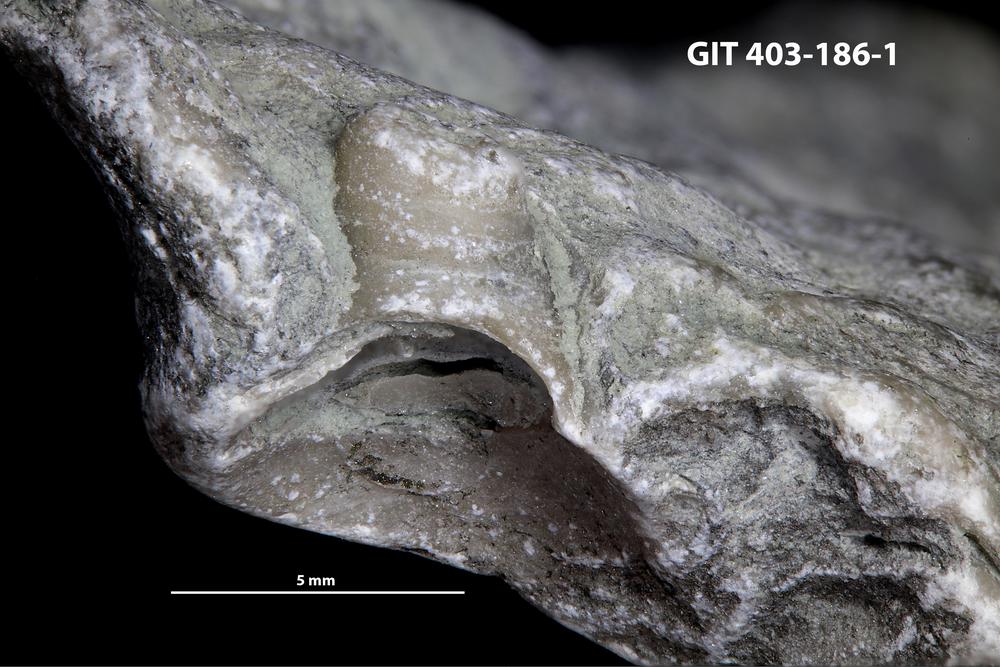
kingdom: Animalia
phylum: Mollusca
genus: Anticalyptraea
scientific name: Anticalyptraea westergaardi
